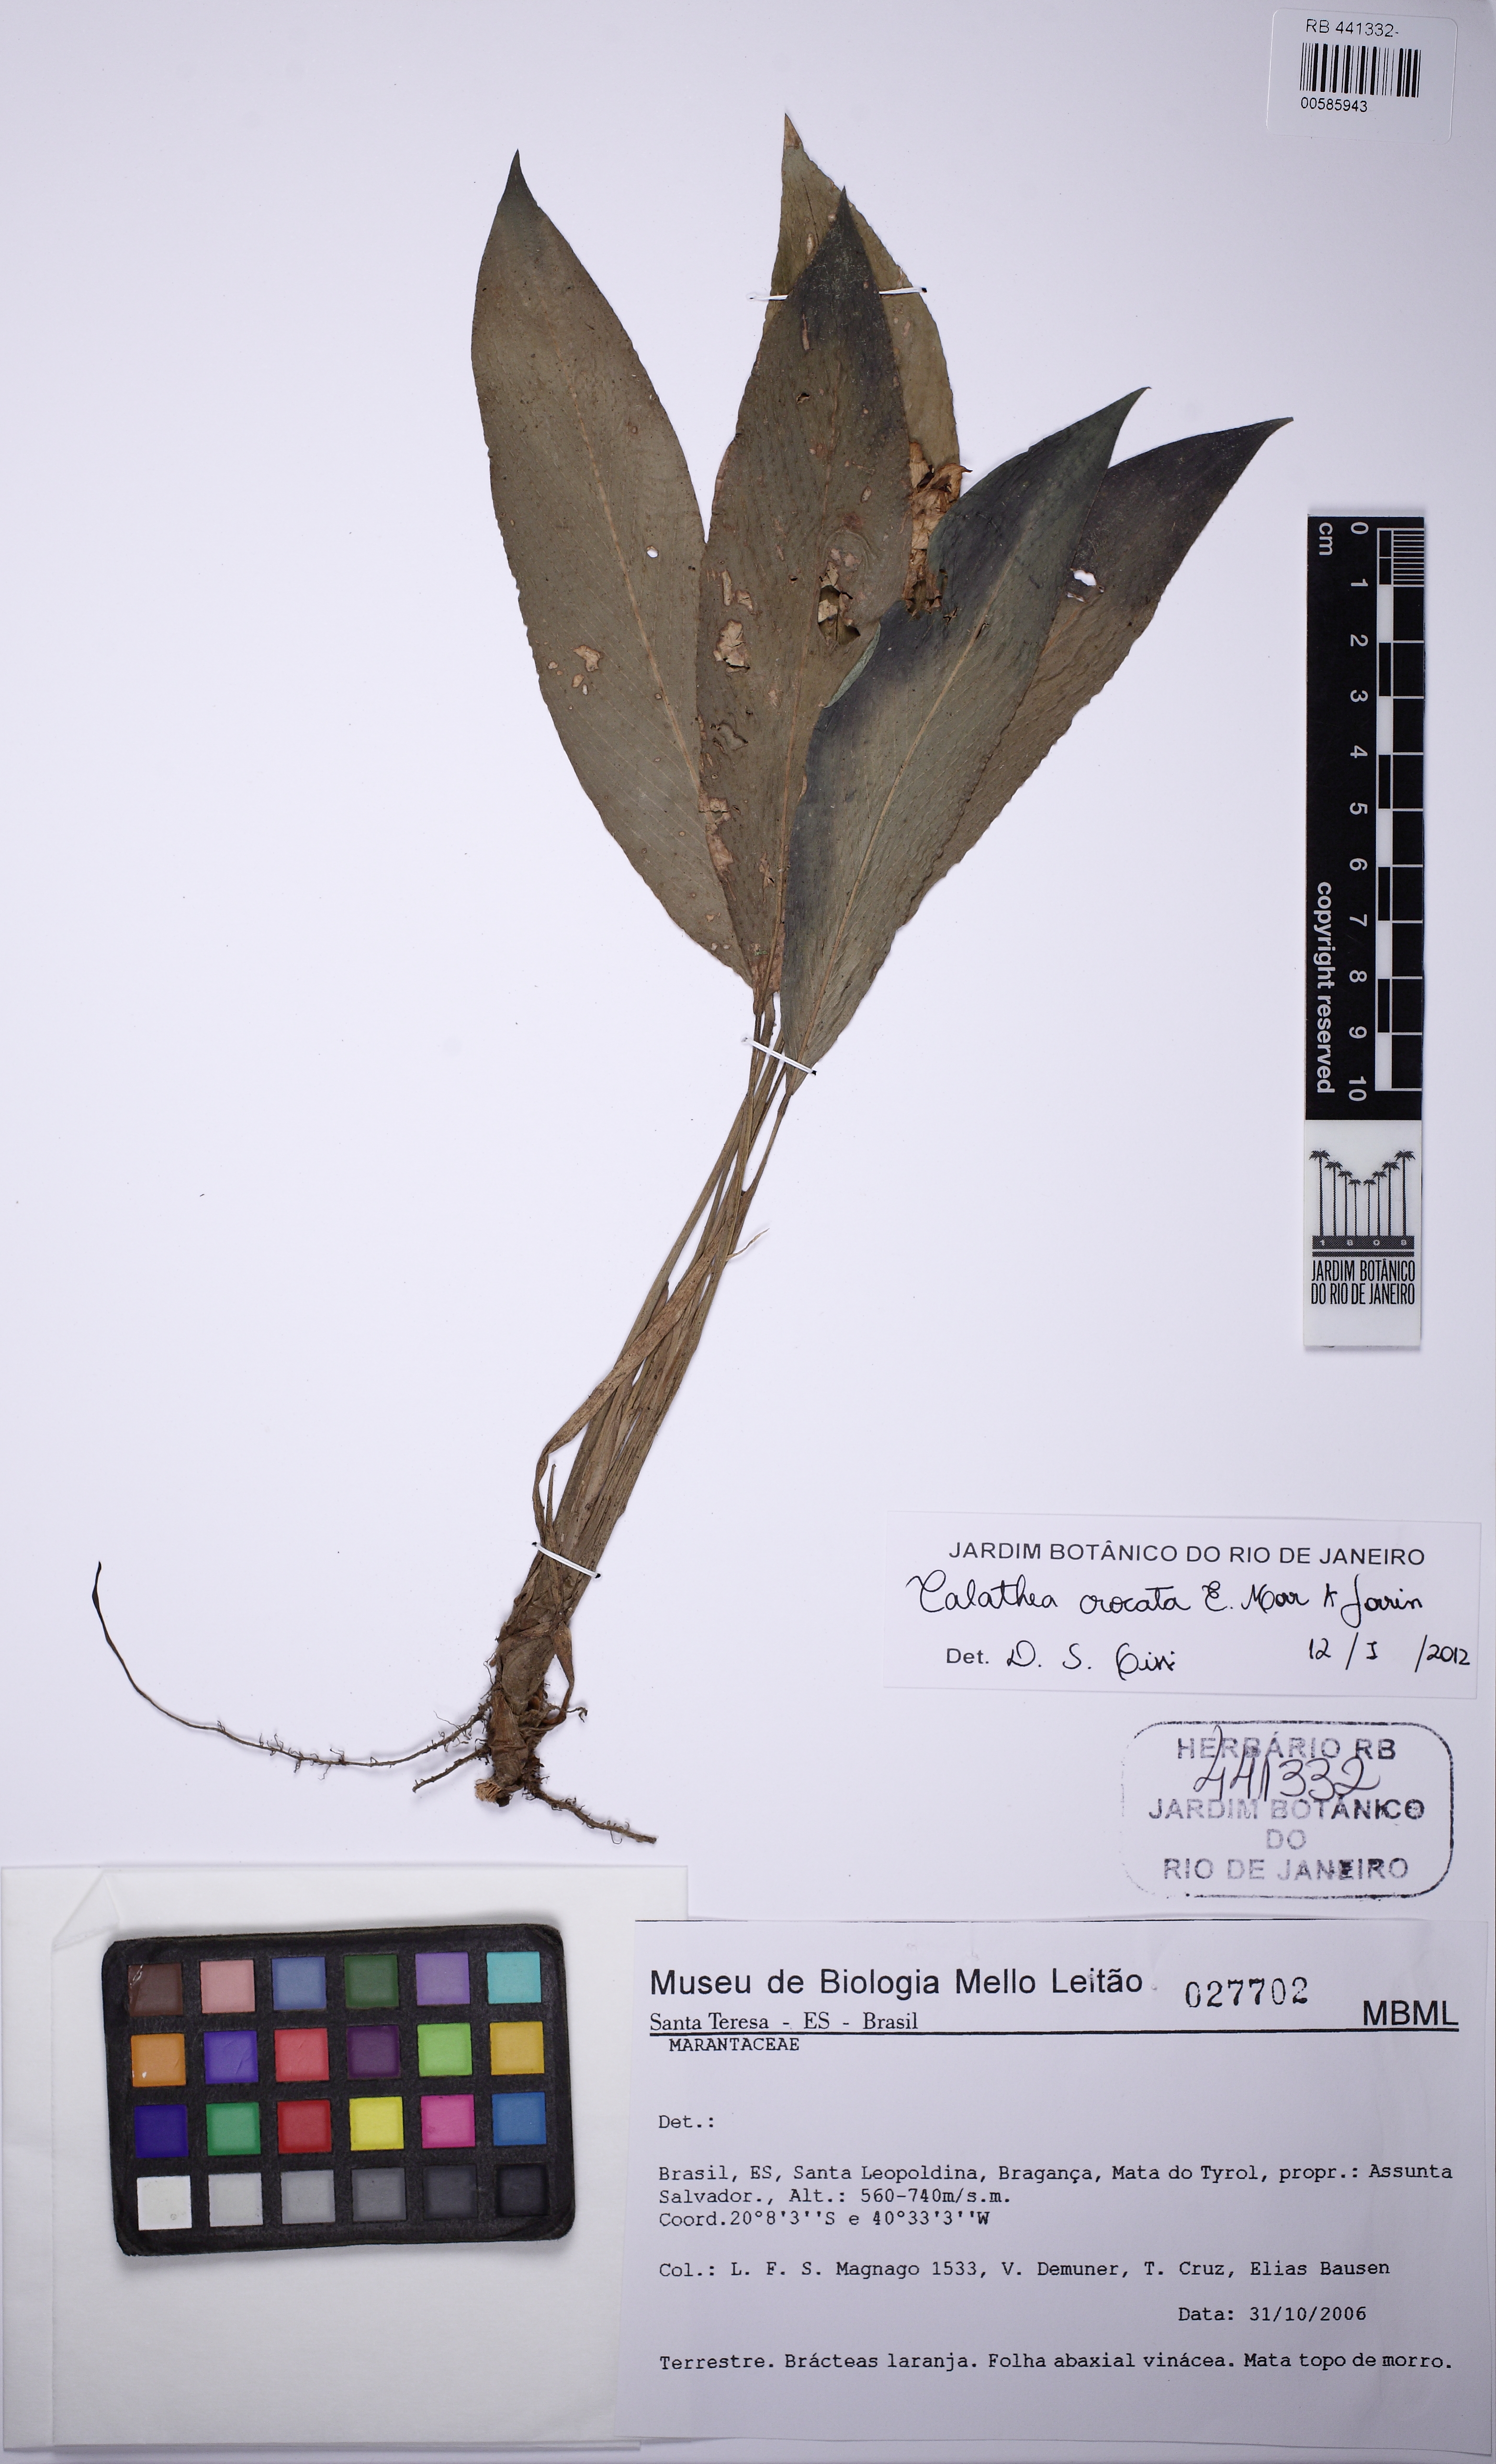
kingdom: Plantae
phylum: Tracheophyta
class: Liliopsida
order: Zingiberales
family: Marantaceae
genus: Goeppertia
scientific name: Goeppertia crocata
